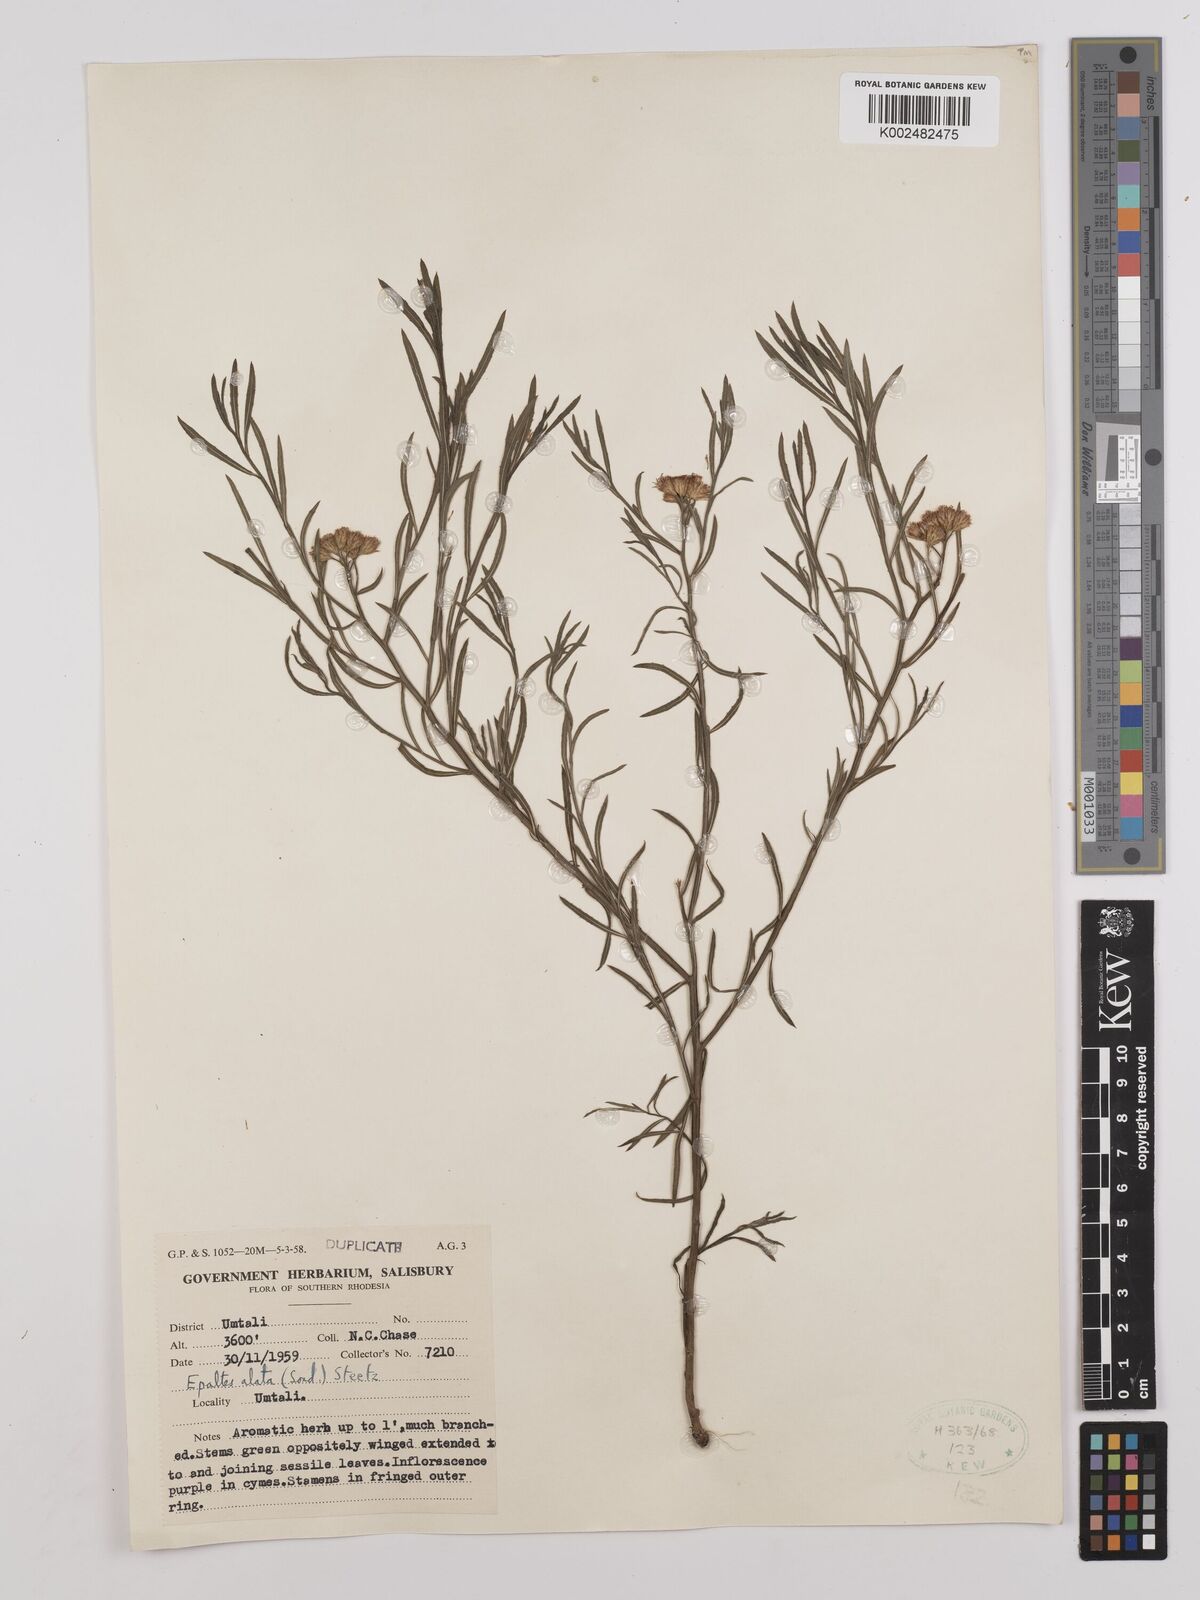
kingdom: Plantae
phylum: Tracheophyta
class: Magnoliopsida
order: Asterales
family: Asteraceae
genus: Litogyne
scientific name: Litogyne gariepina
